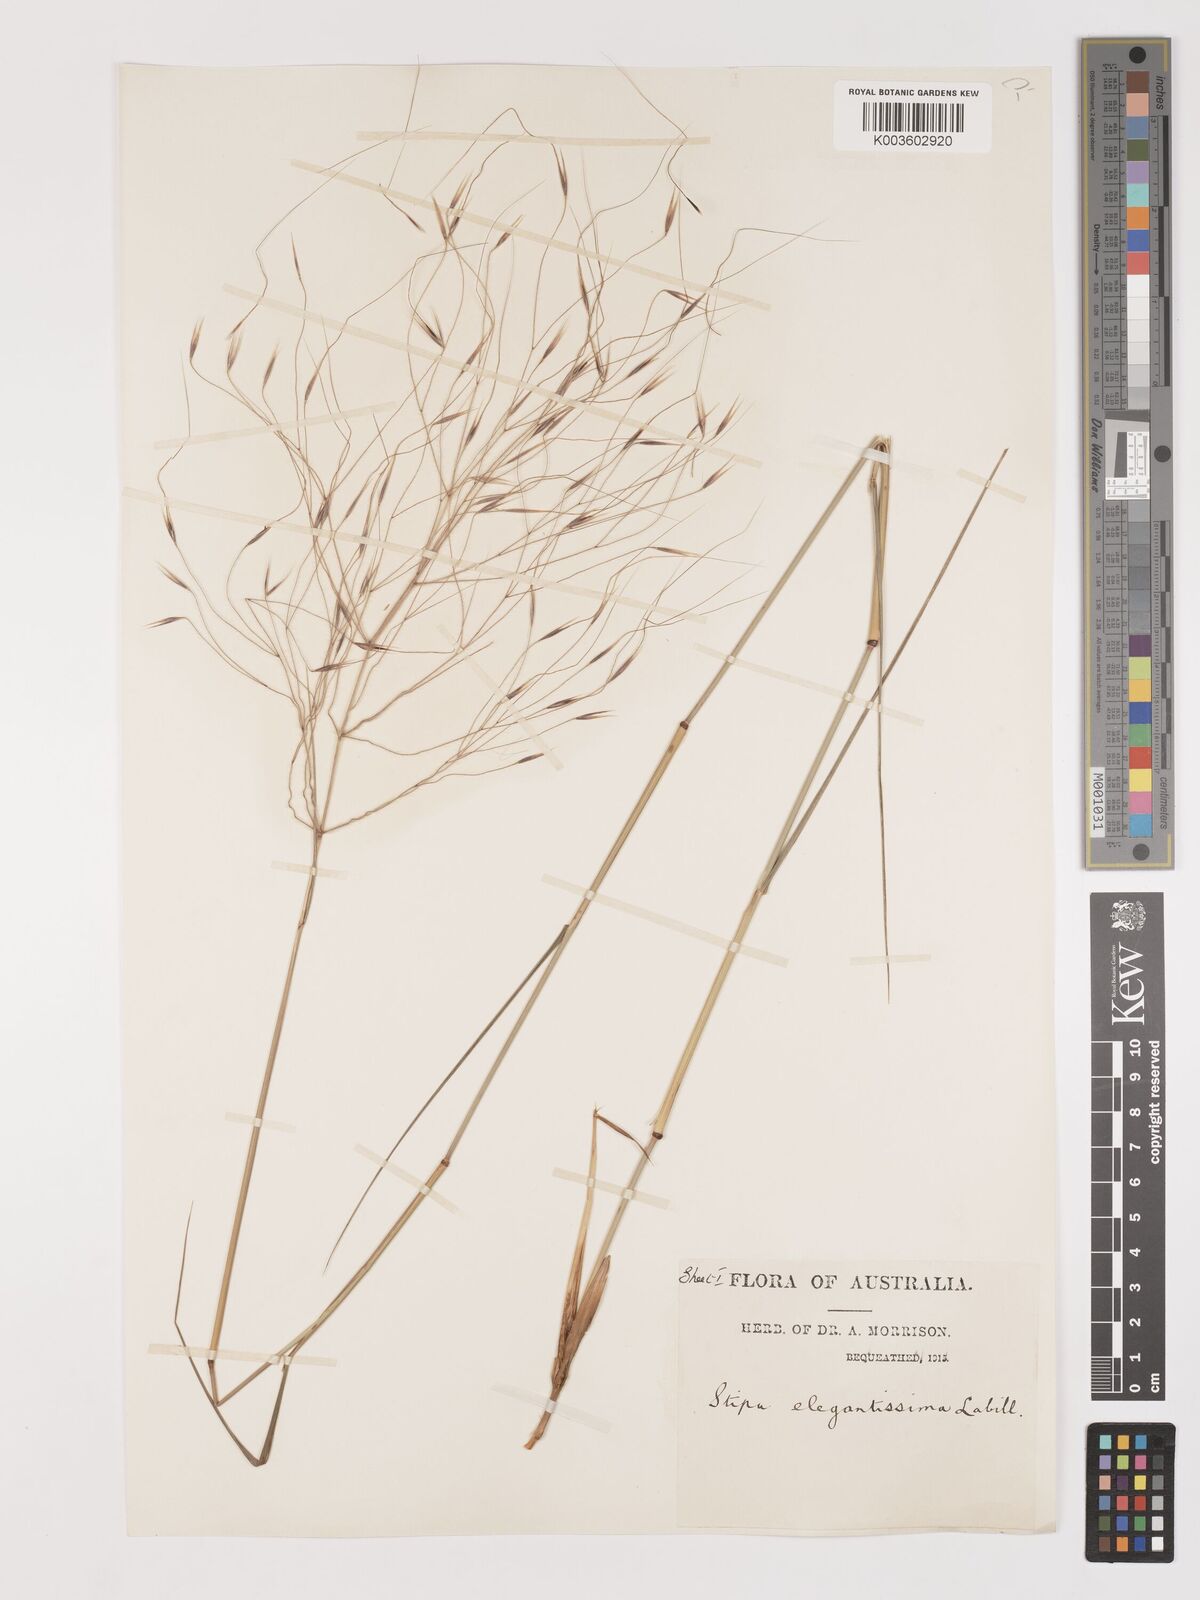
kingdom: Plantae
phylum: Tracheophyta
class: Liliopsida
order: Poales
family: Poaceae
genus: Austrostipa
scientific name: Austrostipa elegantissima
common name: Feather spear grass
